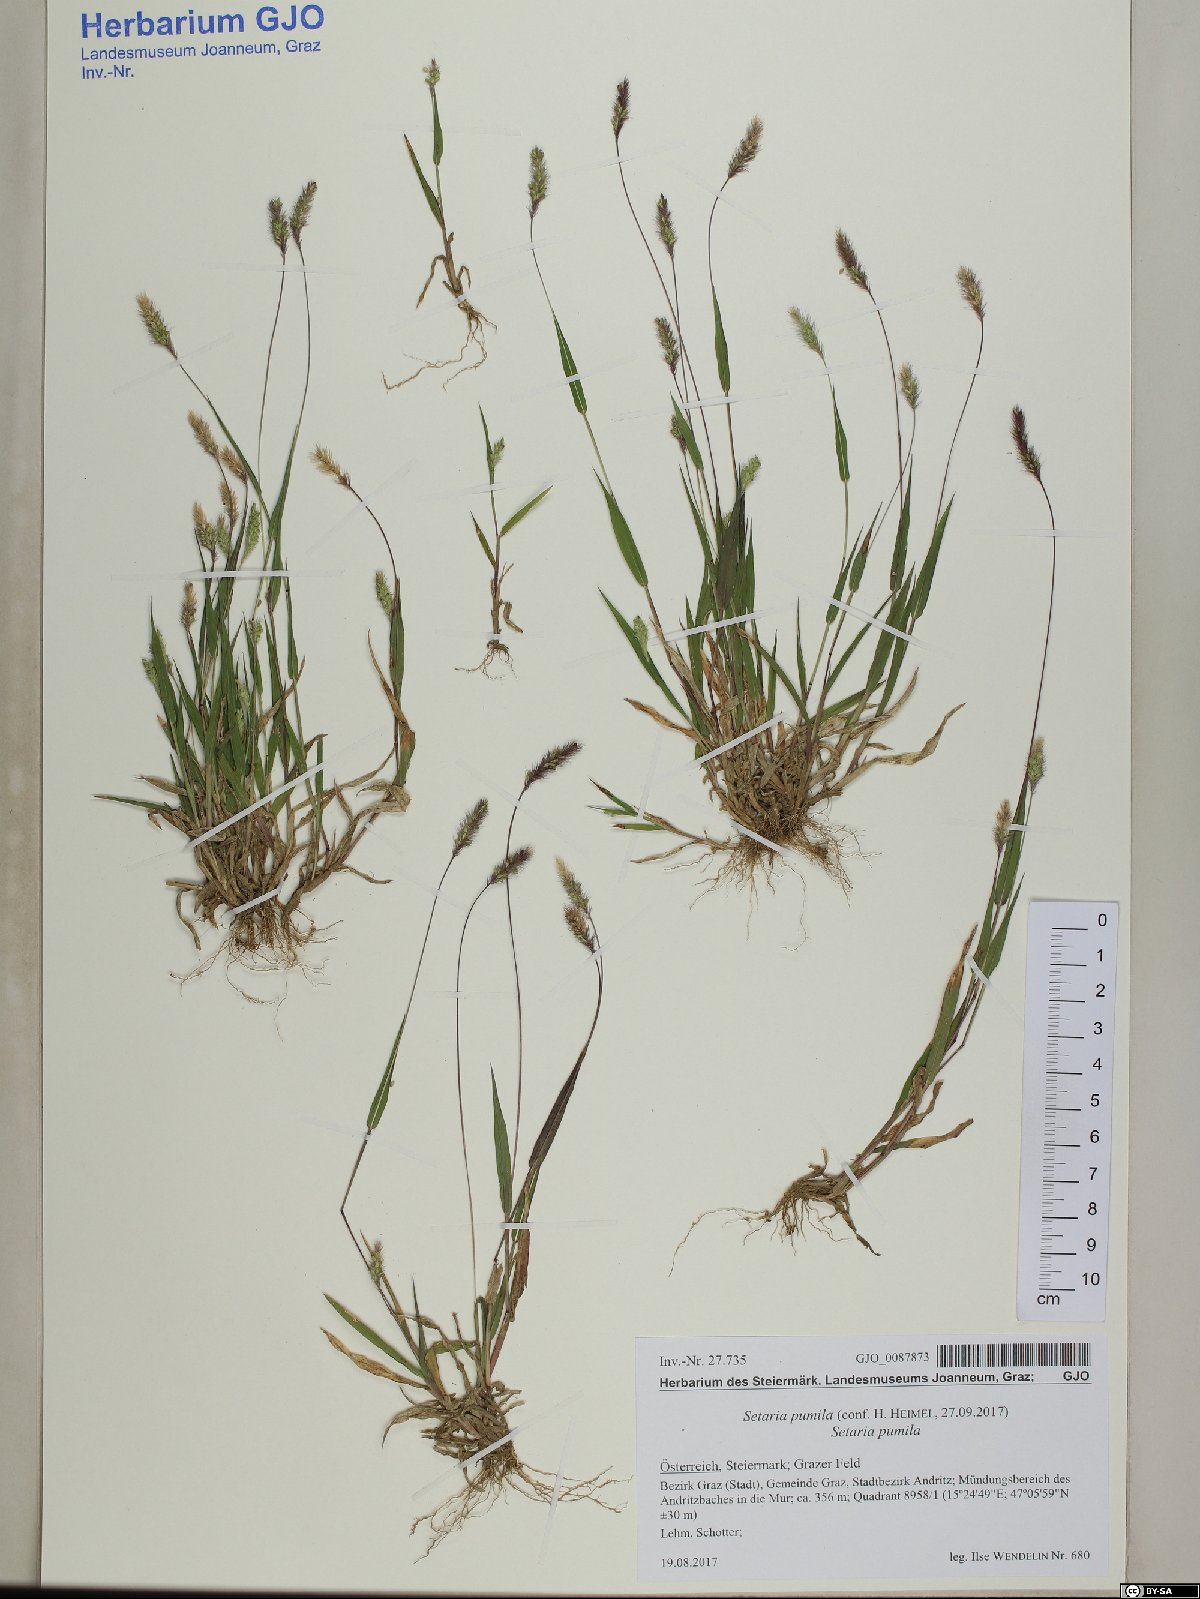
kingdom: Plantae
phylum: Tracheophyta
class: Liliopsida
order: Poales
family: Poaceae
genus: Setaria
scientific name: Setaria pumila
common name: Yellow bristle-grass
